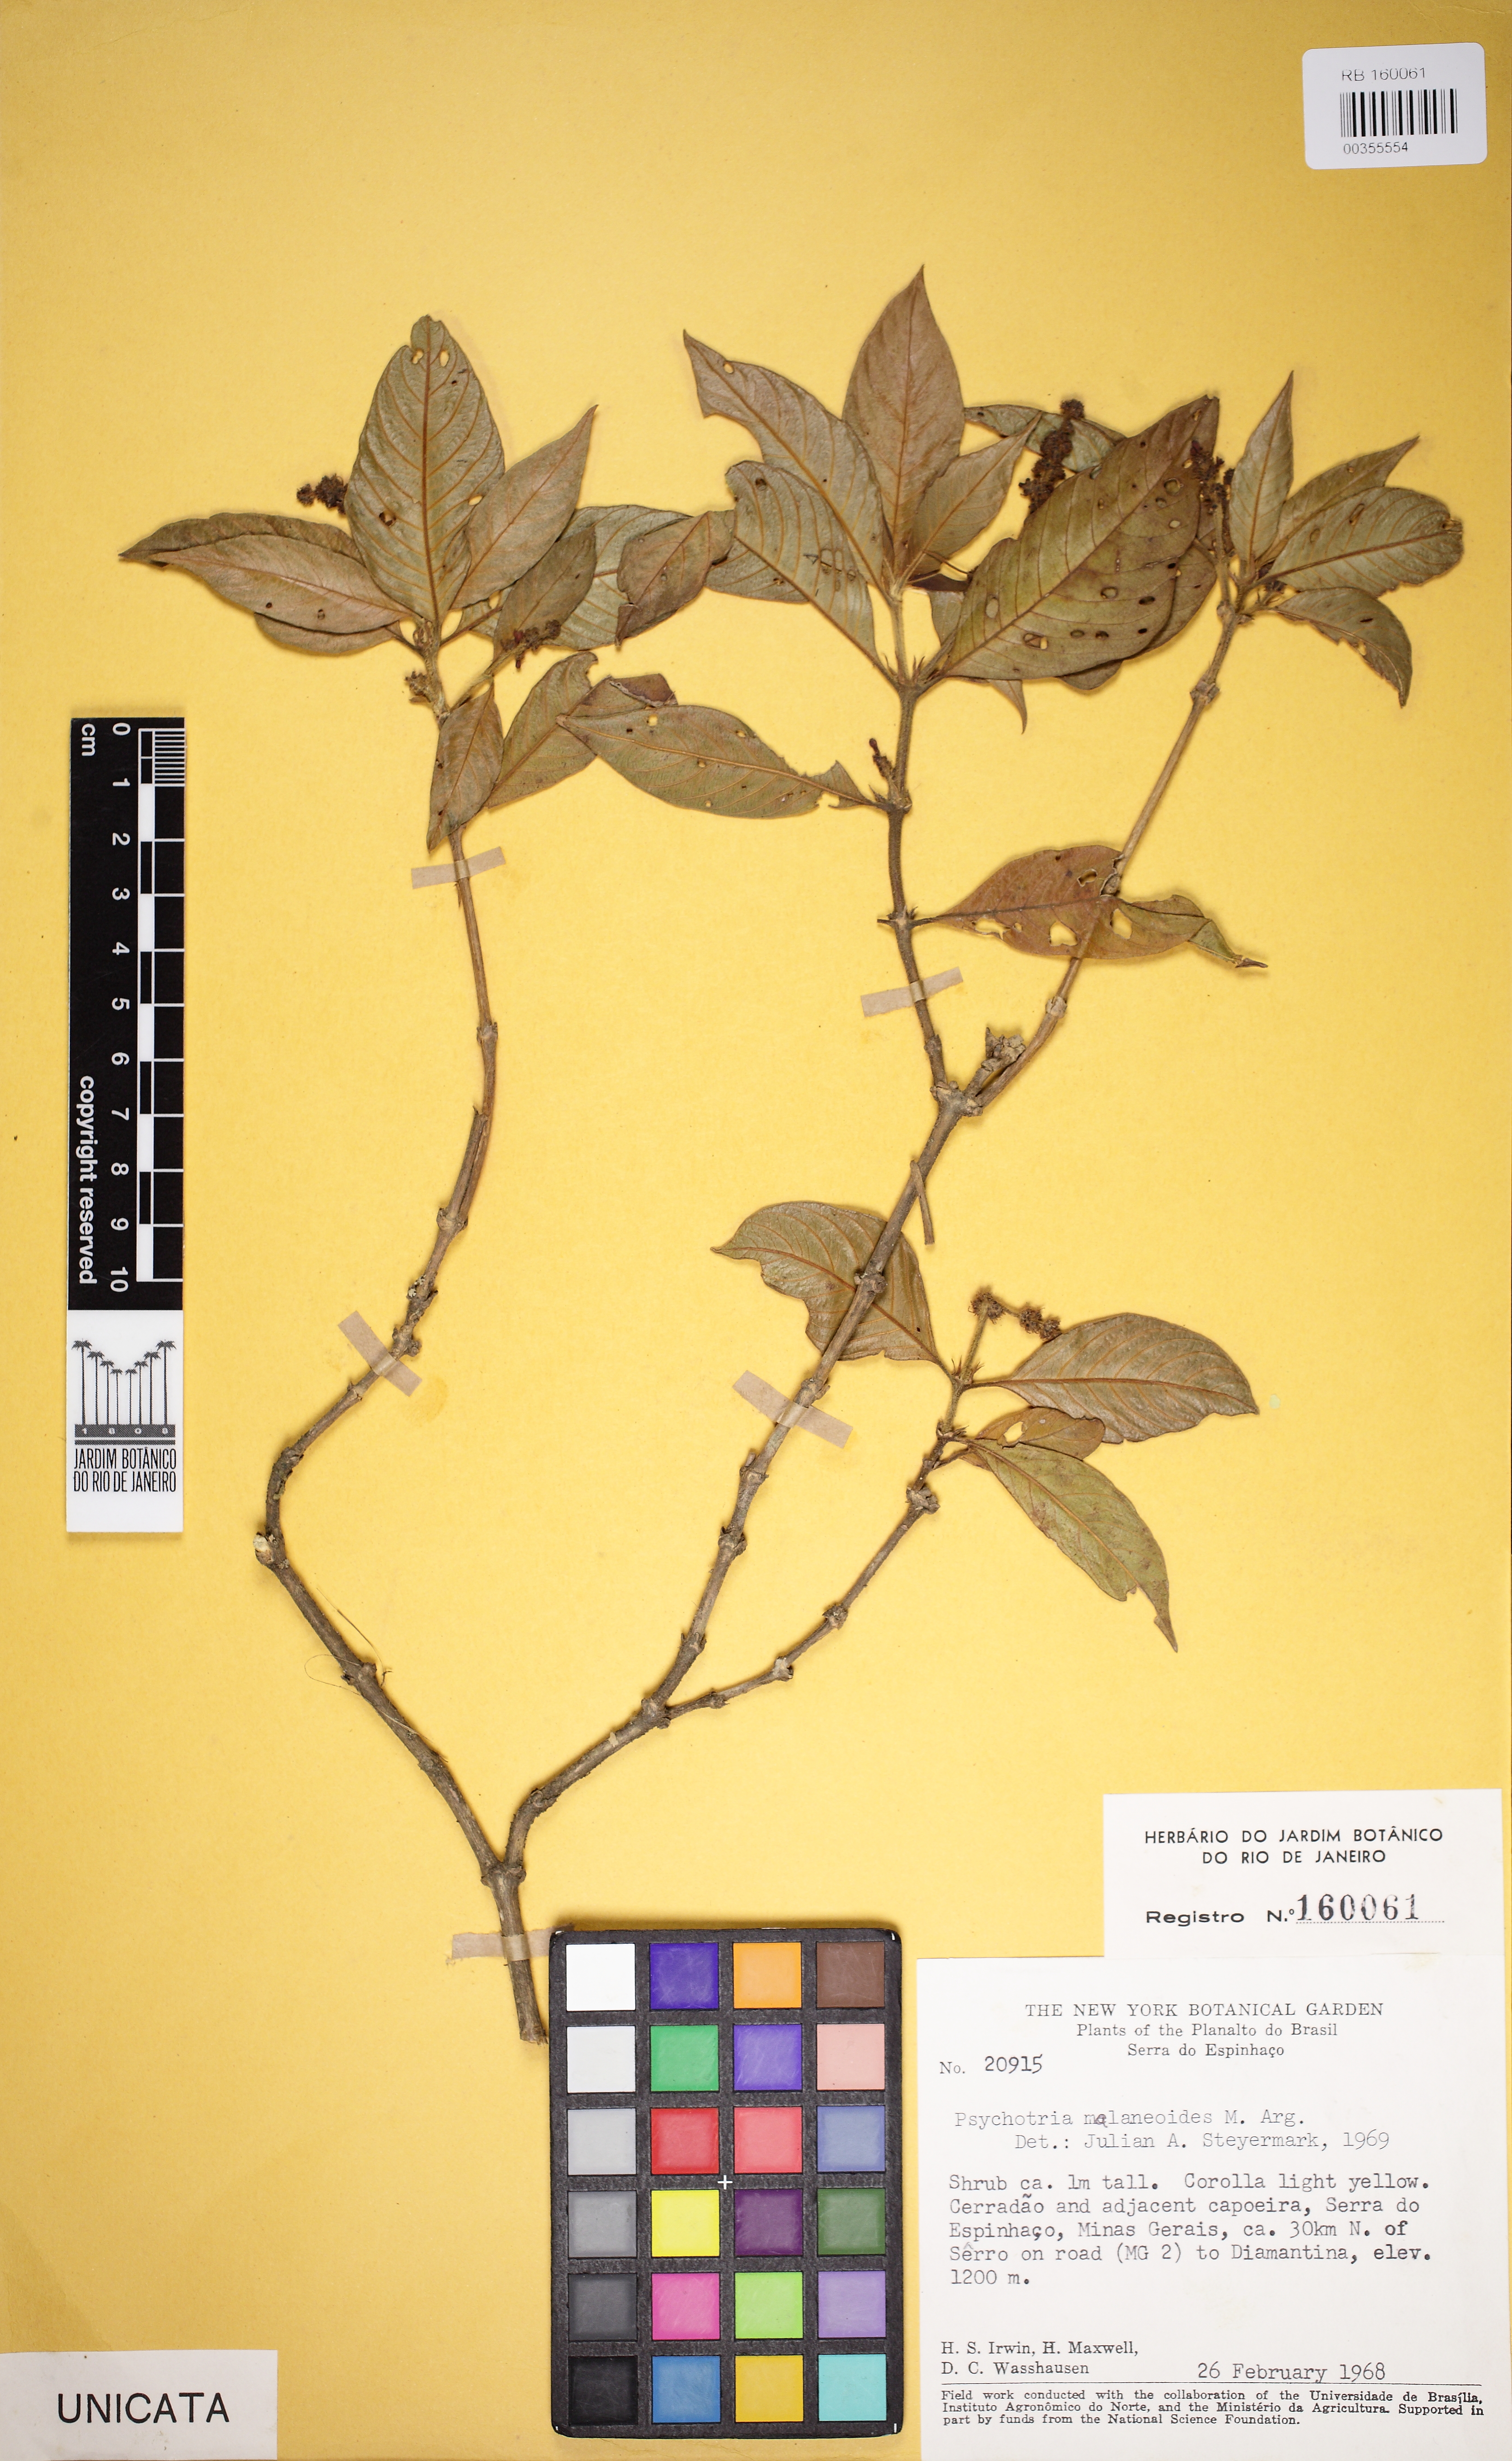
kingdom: Plantae
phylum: Tracheophyta
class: Magnoliopsida
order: Gentianales
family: Rubiaceae
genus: Palicourea
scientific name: Palicourea malaneoides
